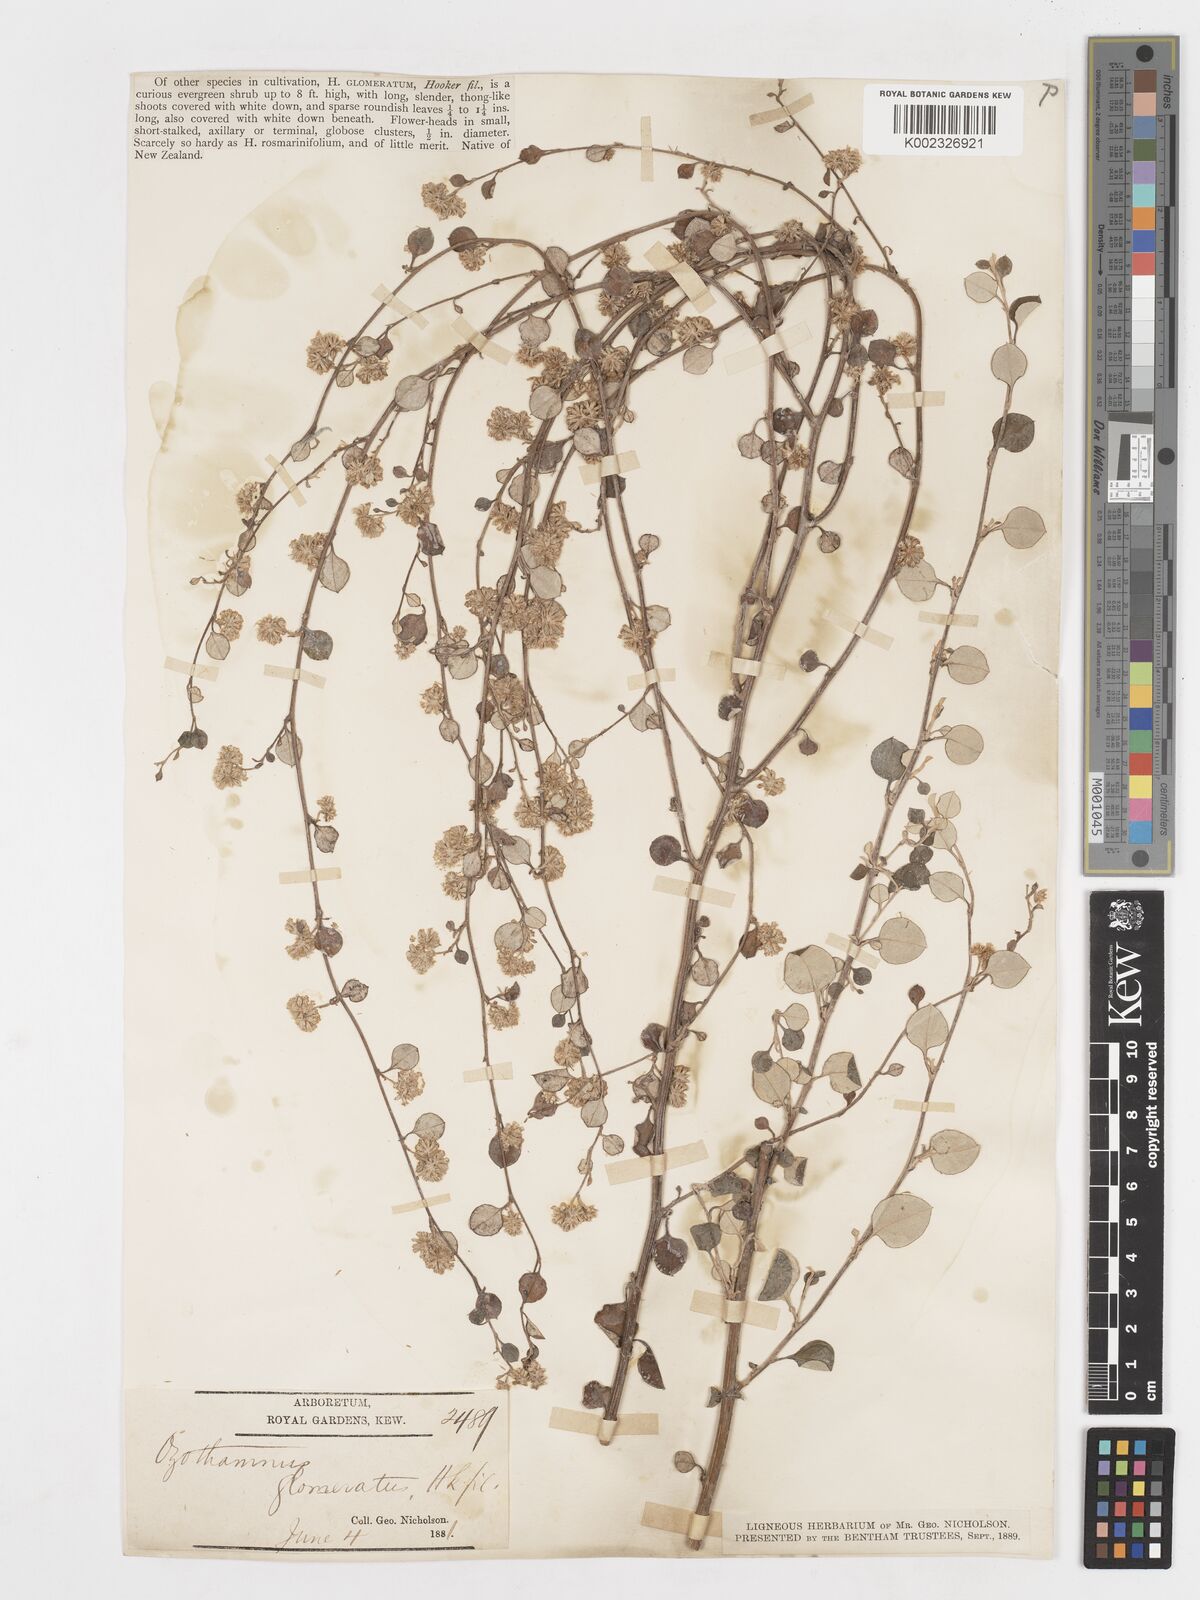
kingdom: Plantae
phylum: Tracheophyta
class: Magnoliopsida
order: Asterales
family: Asteraceae
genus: Ozothamnus
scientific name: Ozothamnus glomeratus
